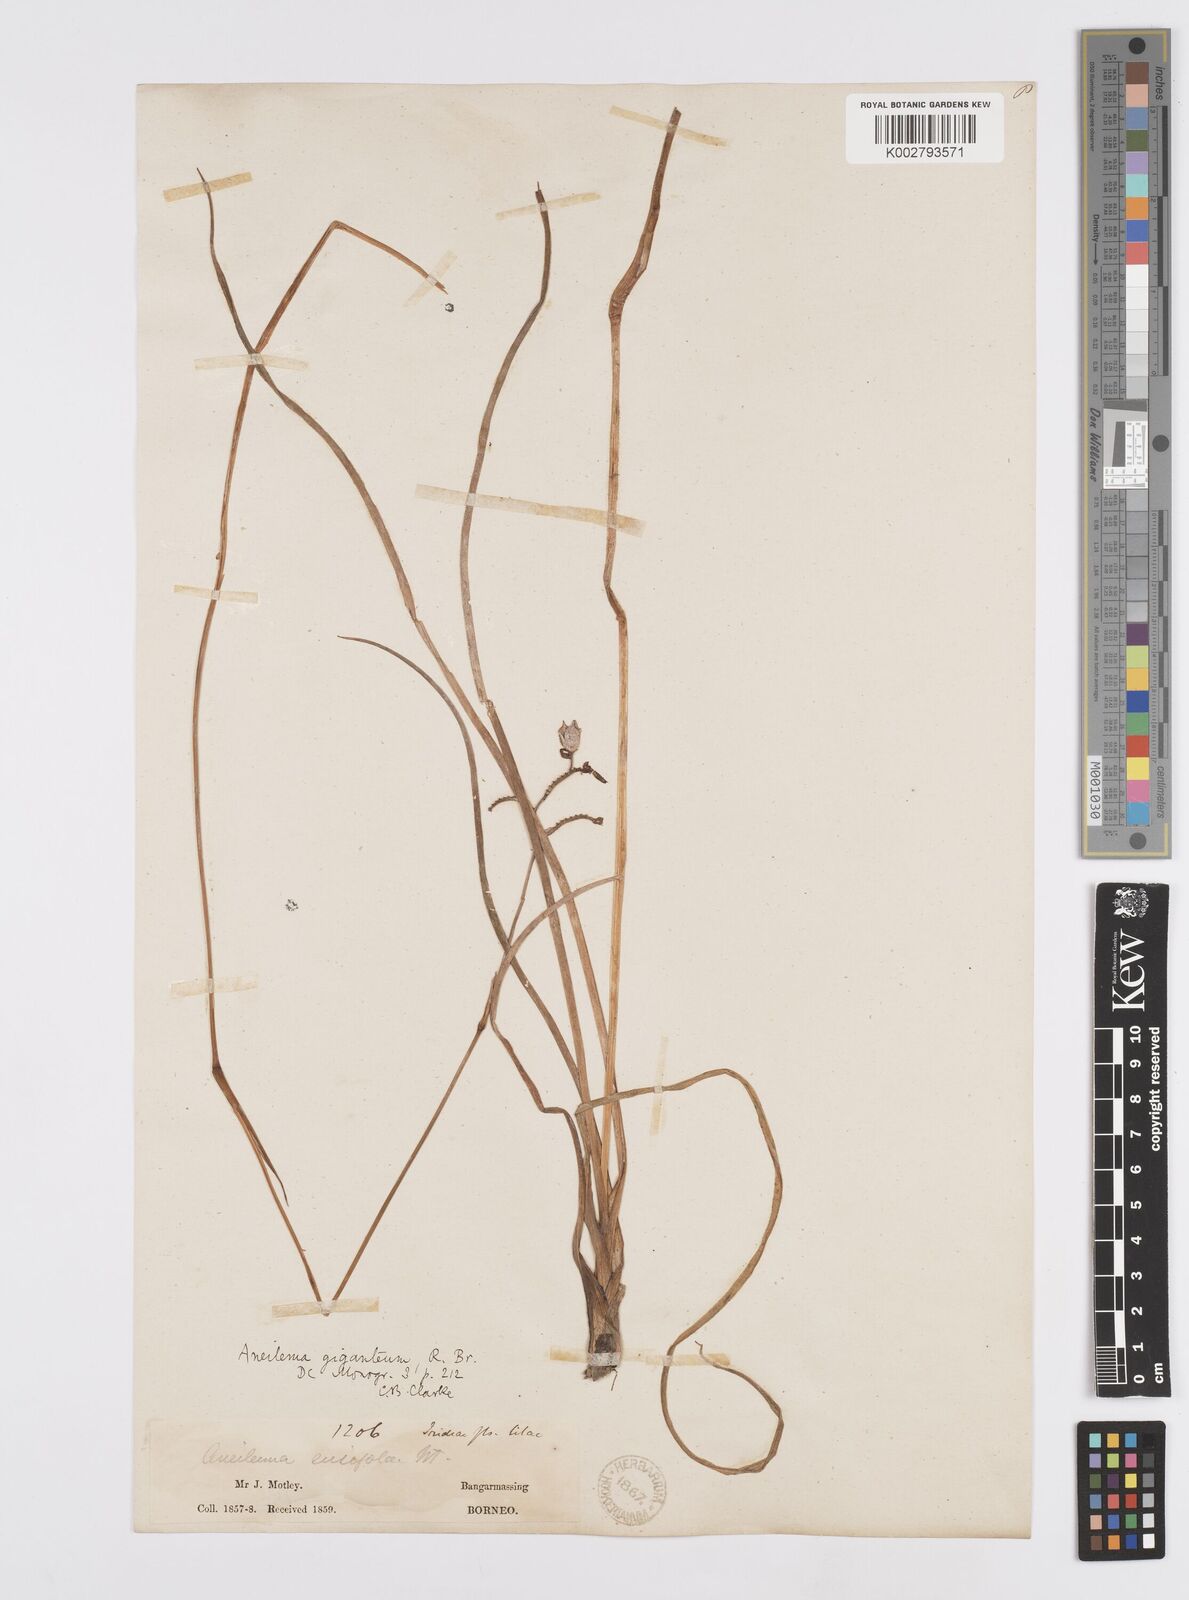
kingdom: Plantae
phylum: Tracheophyta
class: Liliopsida
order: Commelinales
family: Commelinaceae
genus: Murdannia
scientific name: Murdannia gigantea
